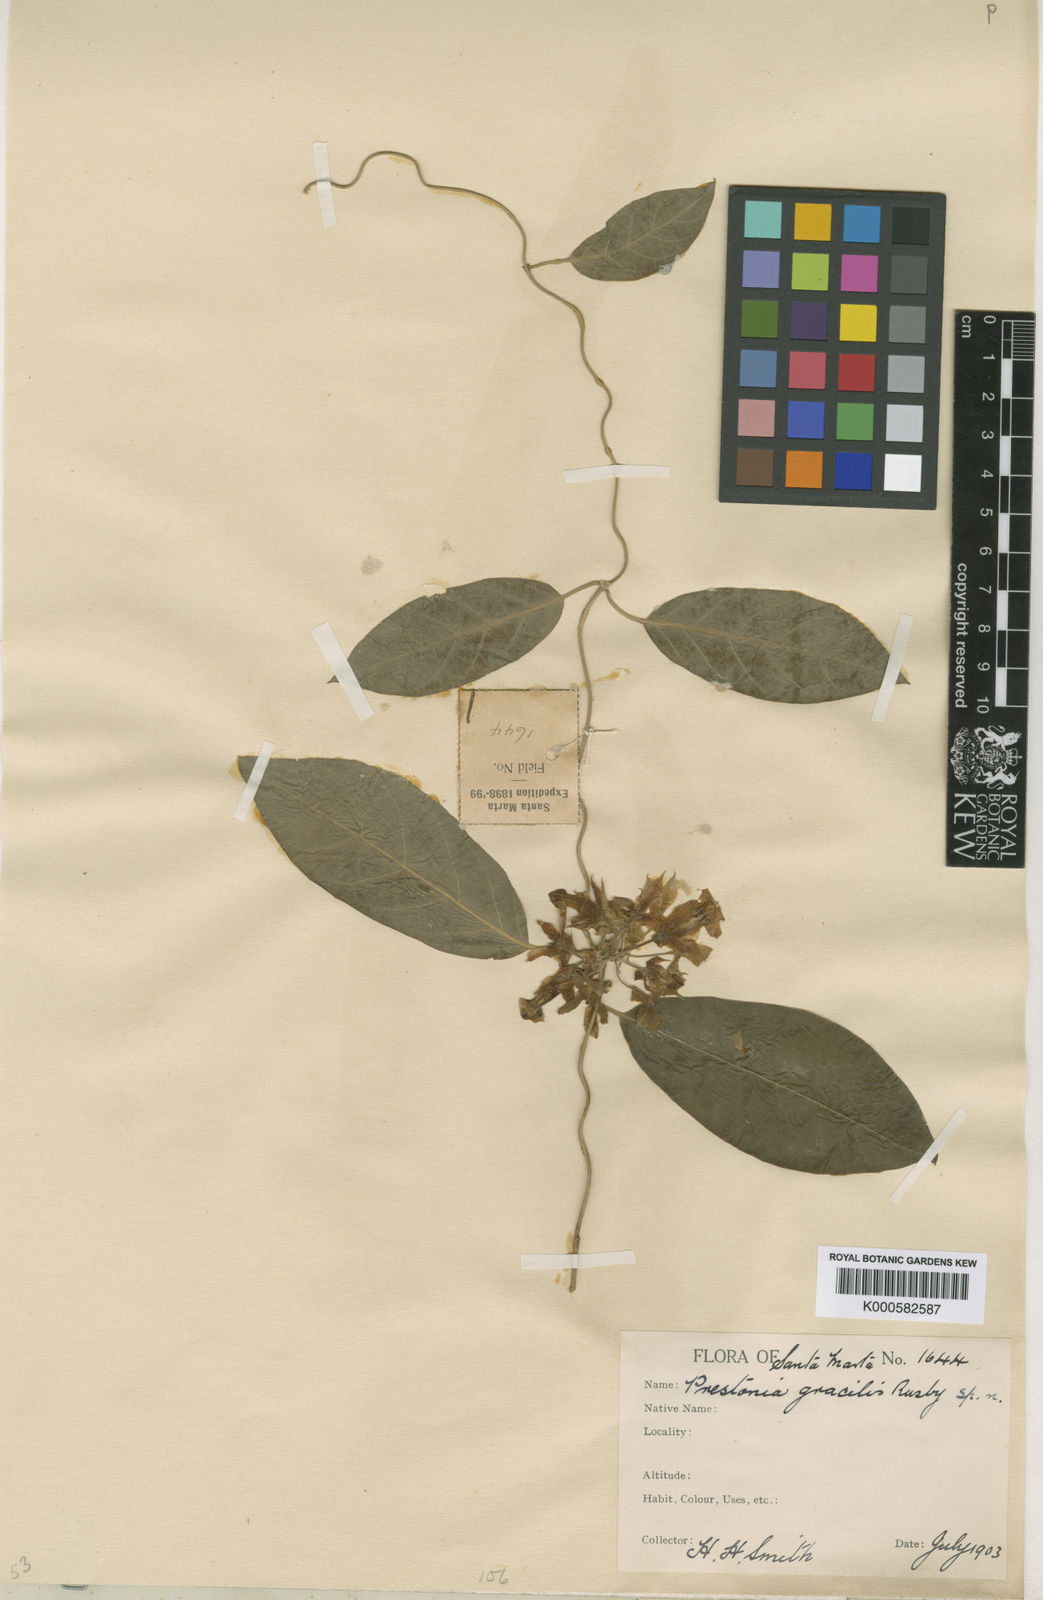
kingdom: Plantae
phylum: Tracheophyta
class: Magnoliopsida
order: Gentianales
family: Apocynaceae
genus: Prestonia
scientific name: Prestonia exerta
